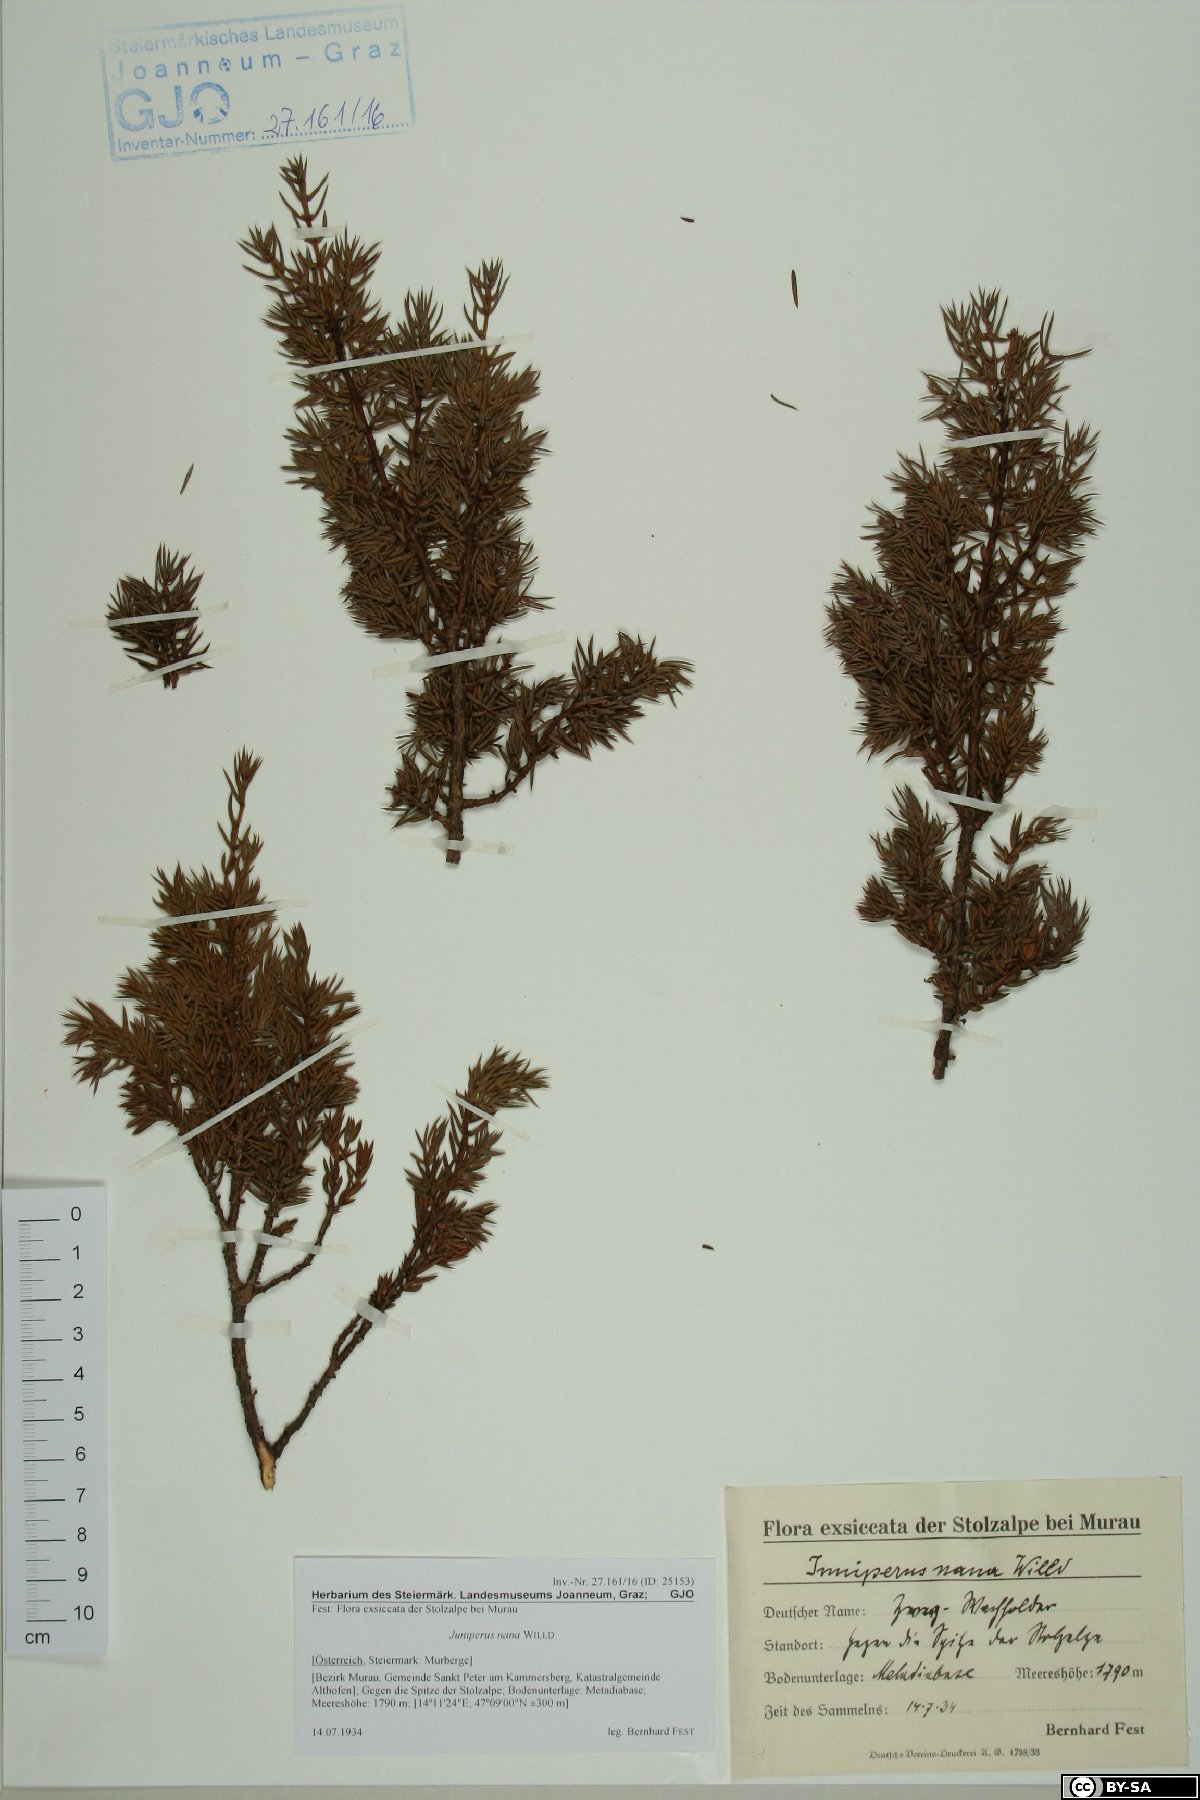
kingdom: Plantae
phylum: Tracheophyta
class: Pinopsida
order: Pinales
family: Cupressaceae
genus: Juniperus
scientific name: Juniperus communis
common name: Common juniper
